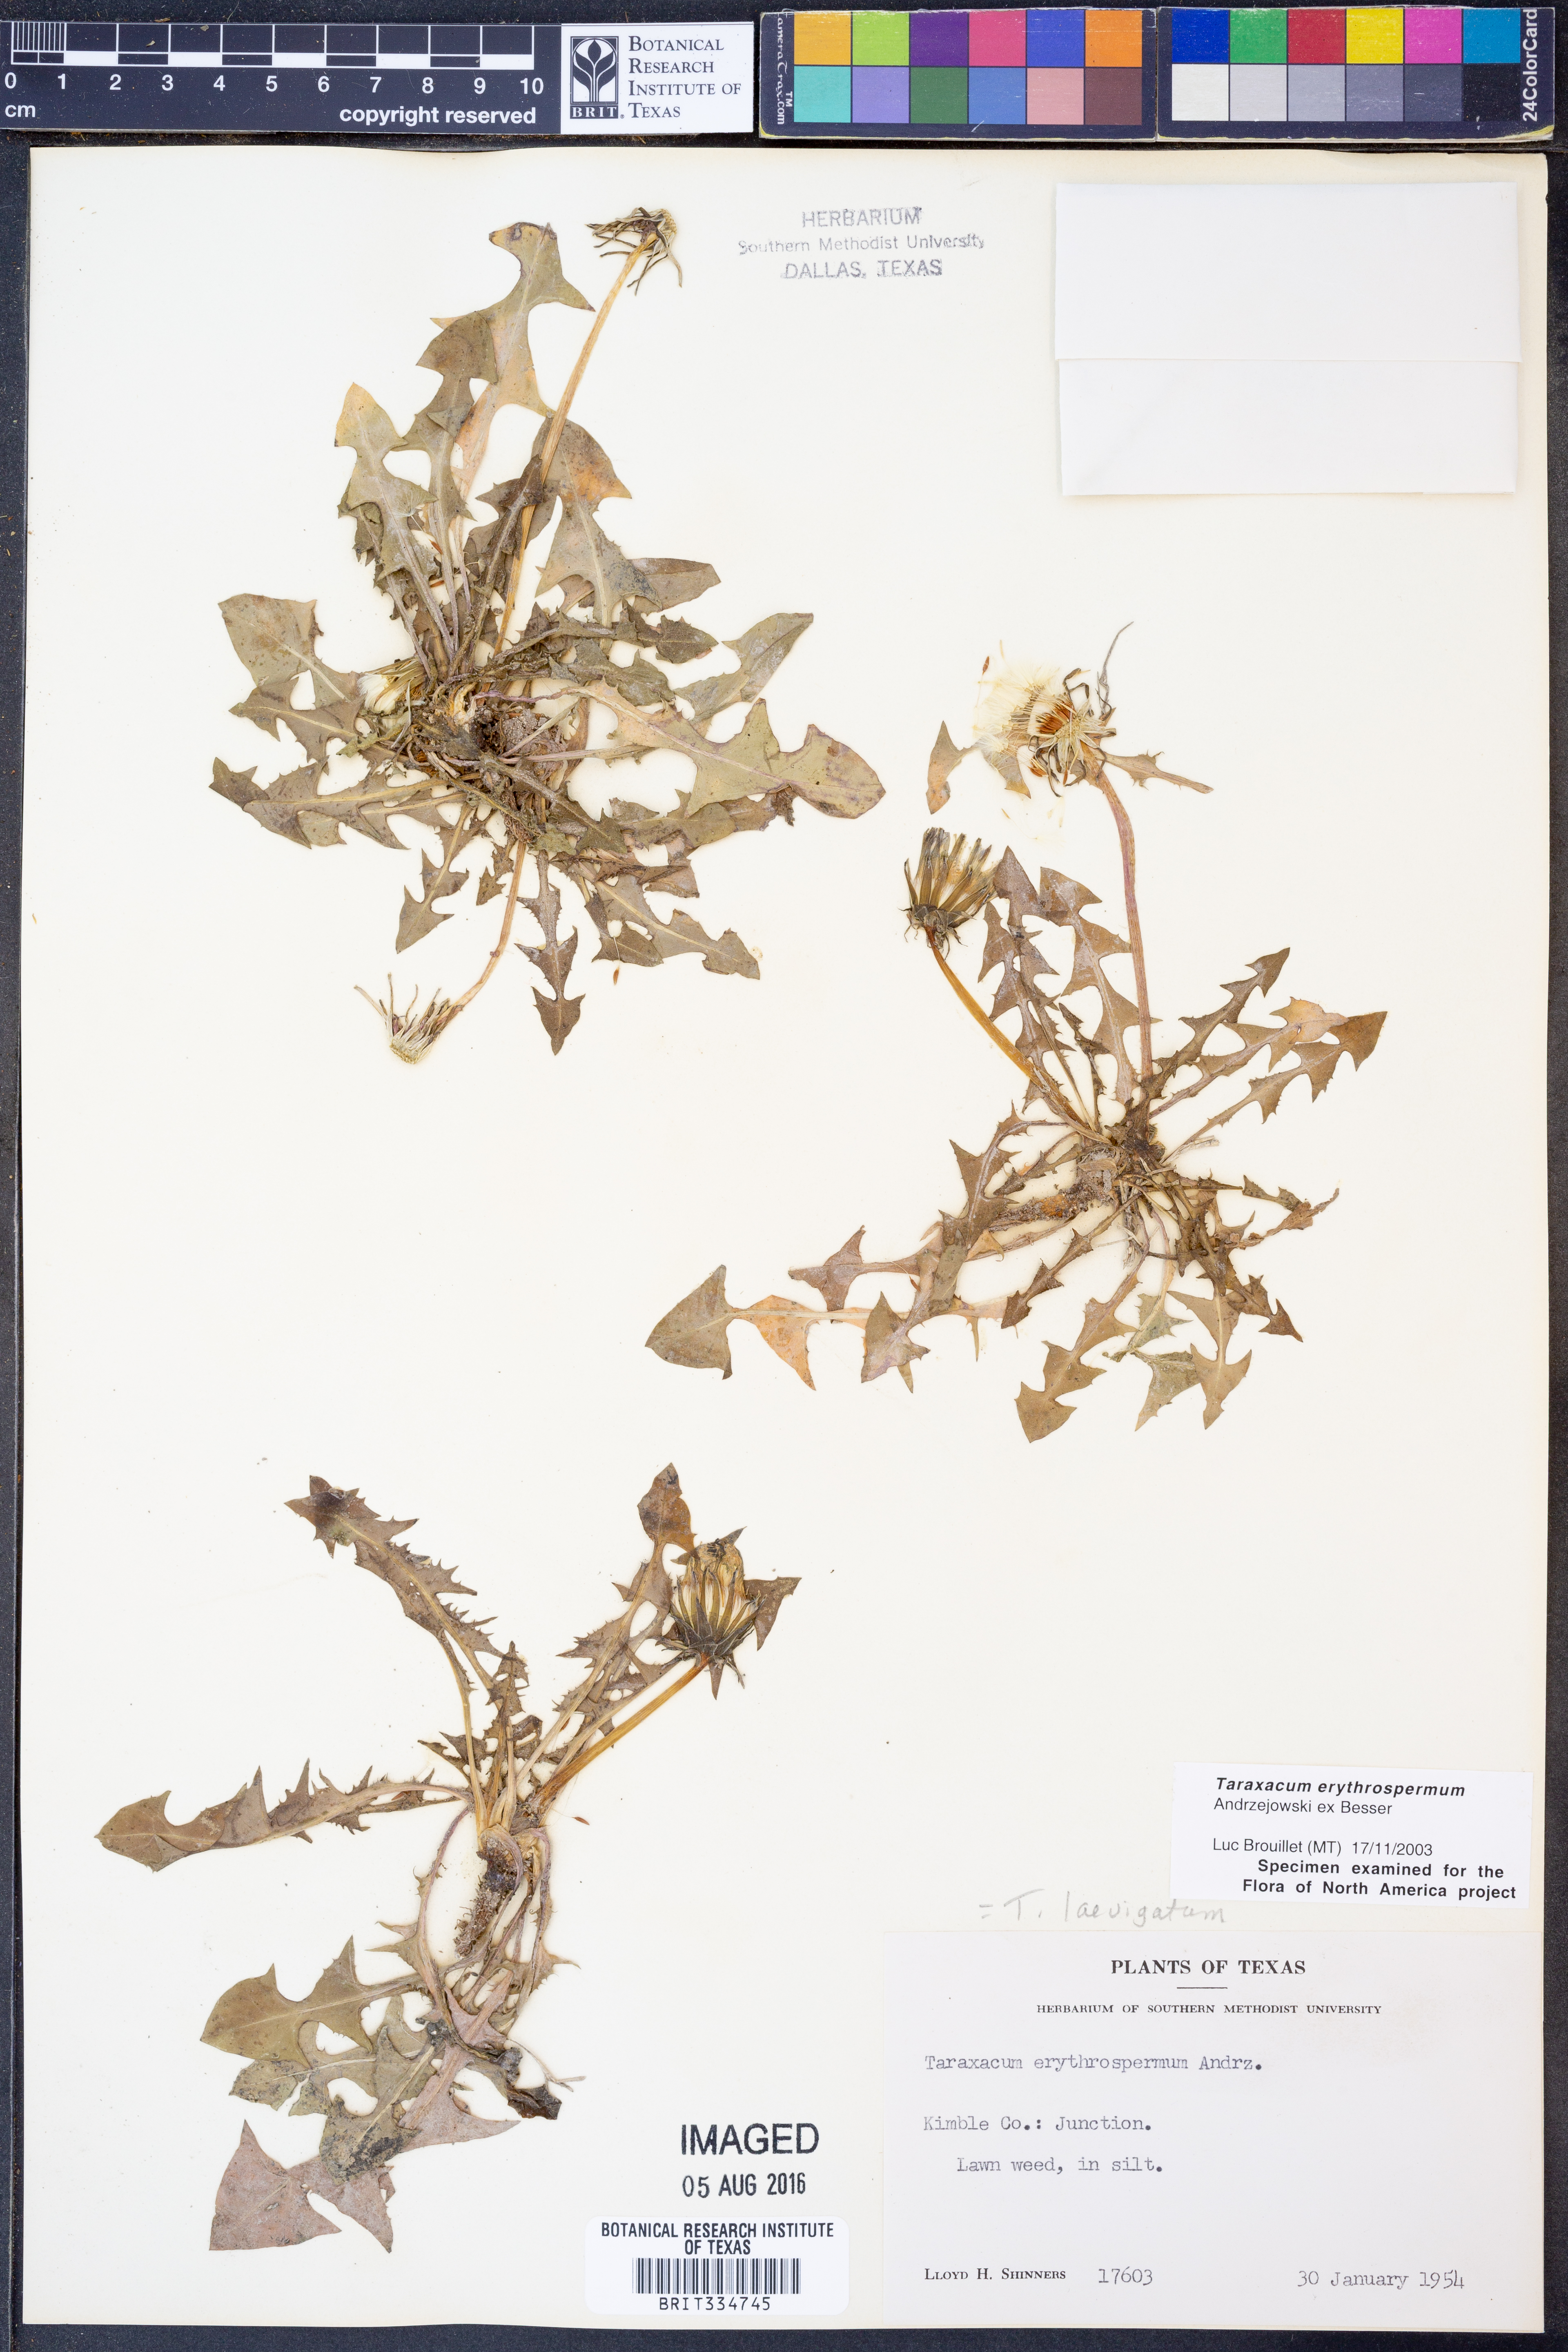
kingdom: Plantae
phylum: Tracheophyta
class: Magnoliopsida
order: Asterales
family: Asteraceae
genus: Taraxacum
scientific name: Taraxacum erythrospermum
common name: Rock dandelion
